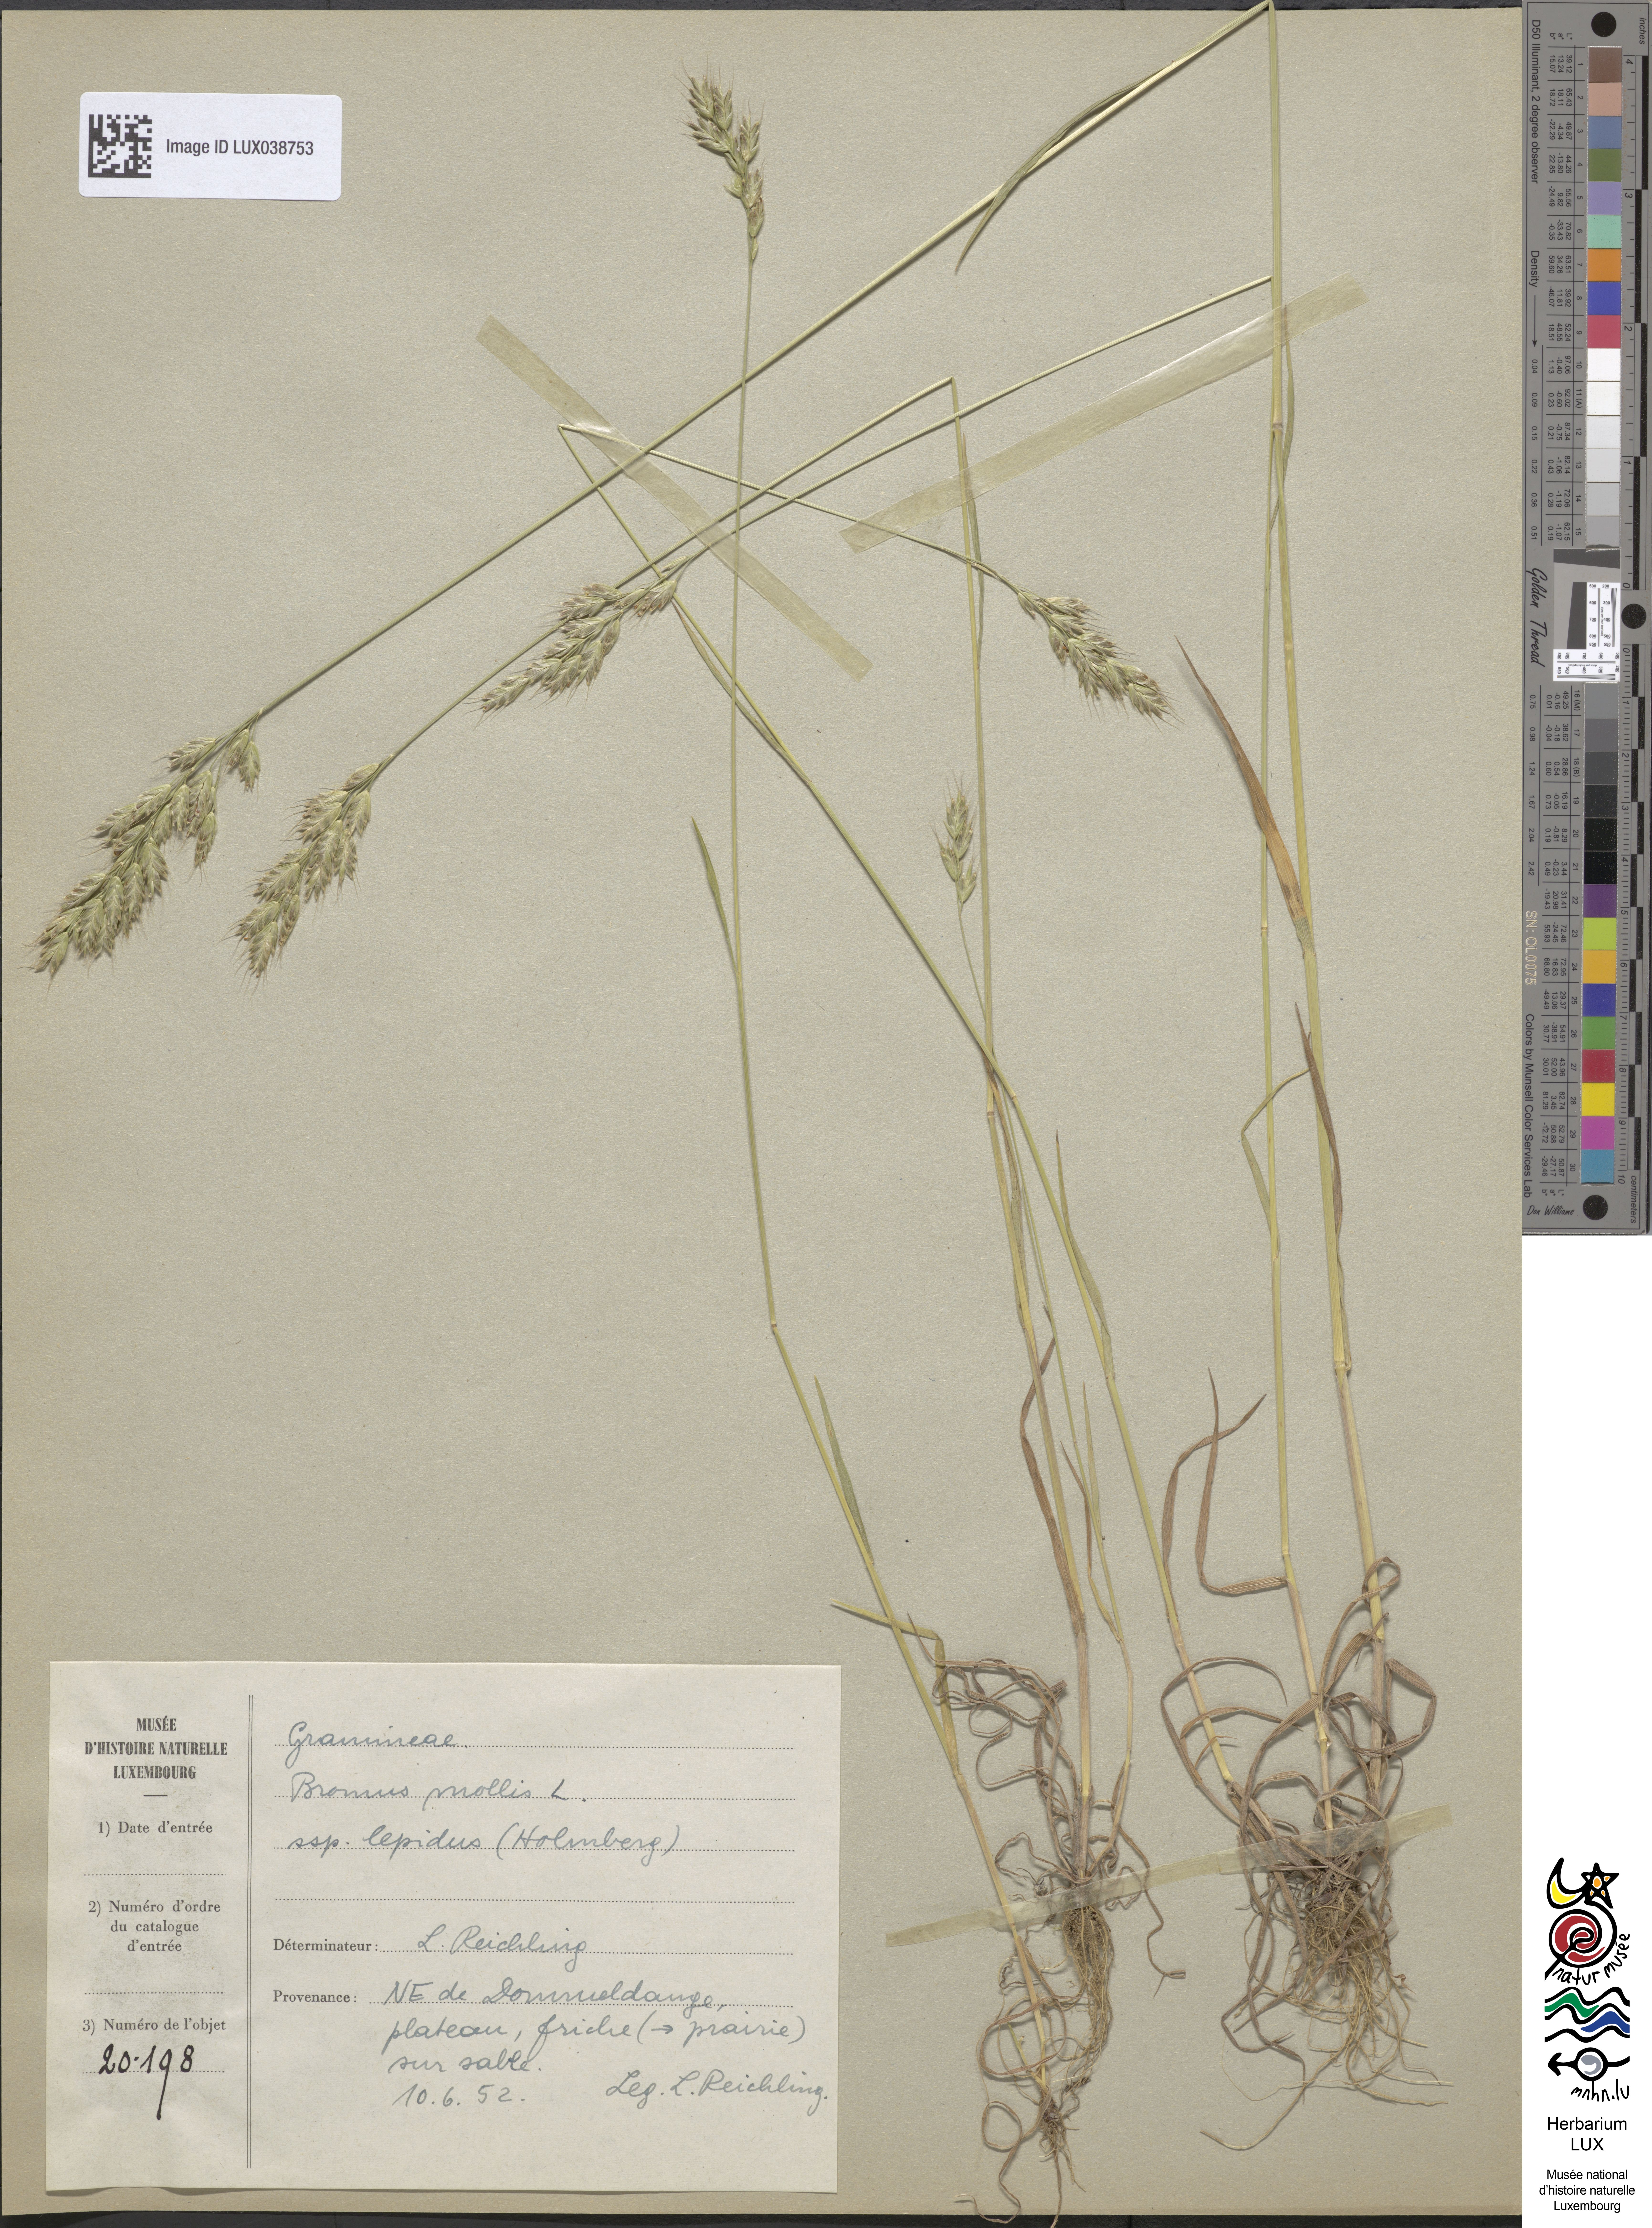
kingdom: Plantae
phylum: Tracheophyta
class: Liliopsida
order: Poales
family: Poaceae
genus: Bromus
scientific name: Bromus lepidus
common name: Slender soft-brome
